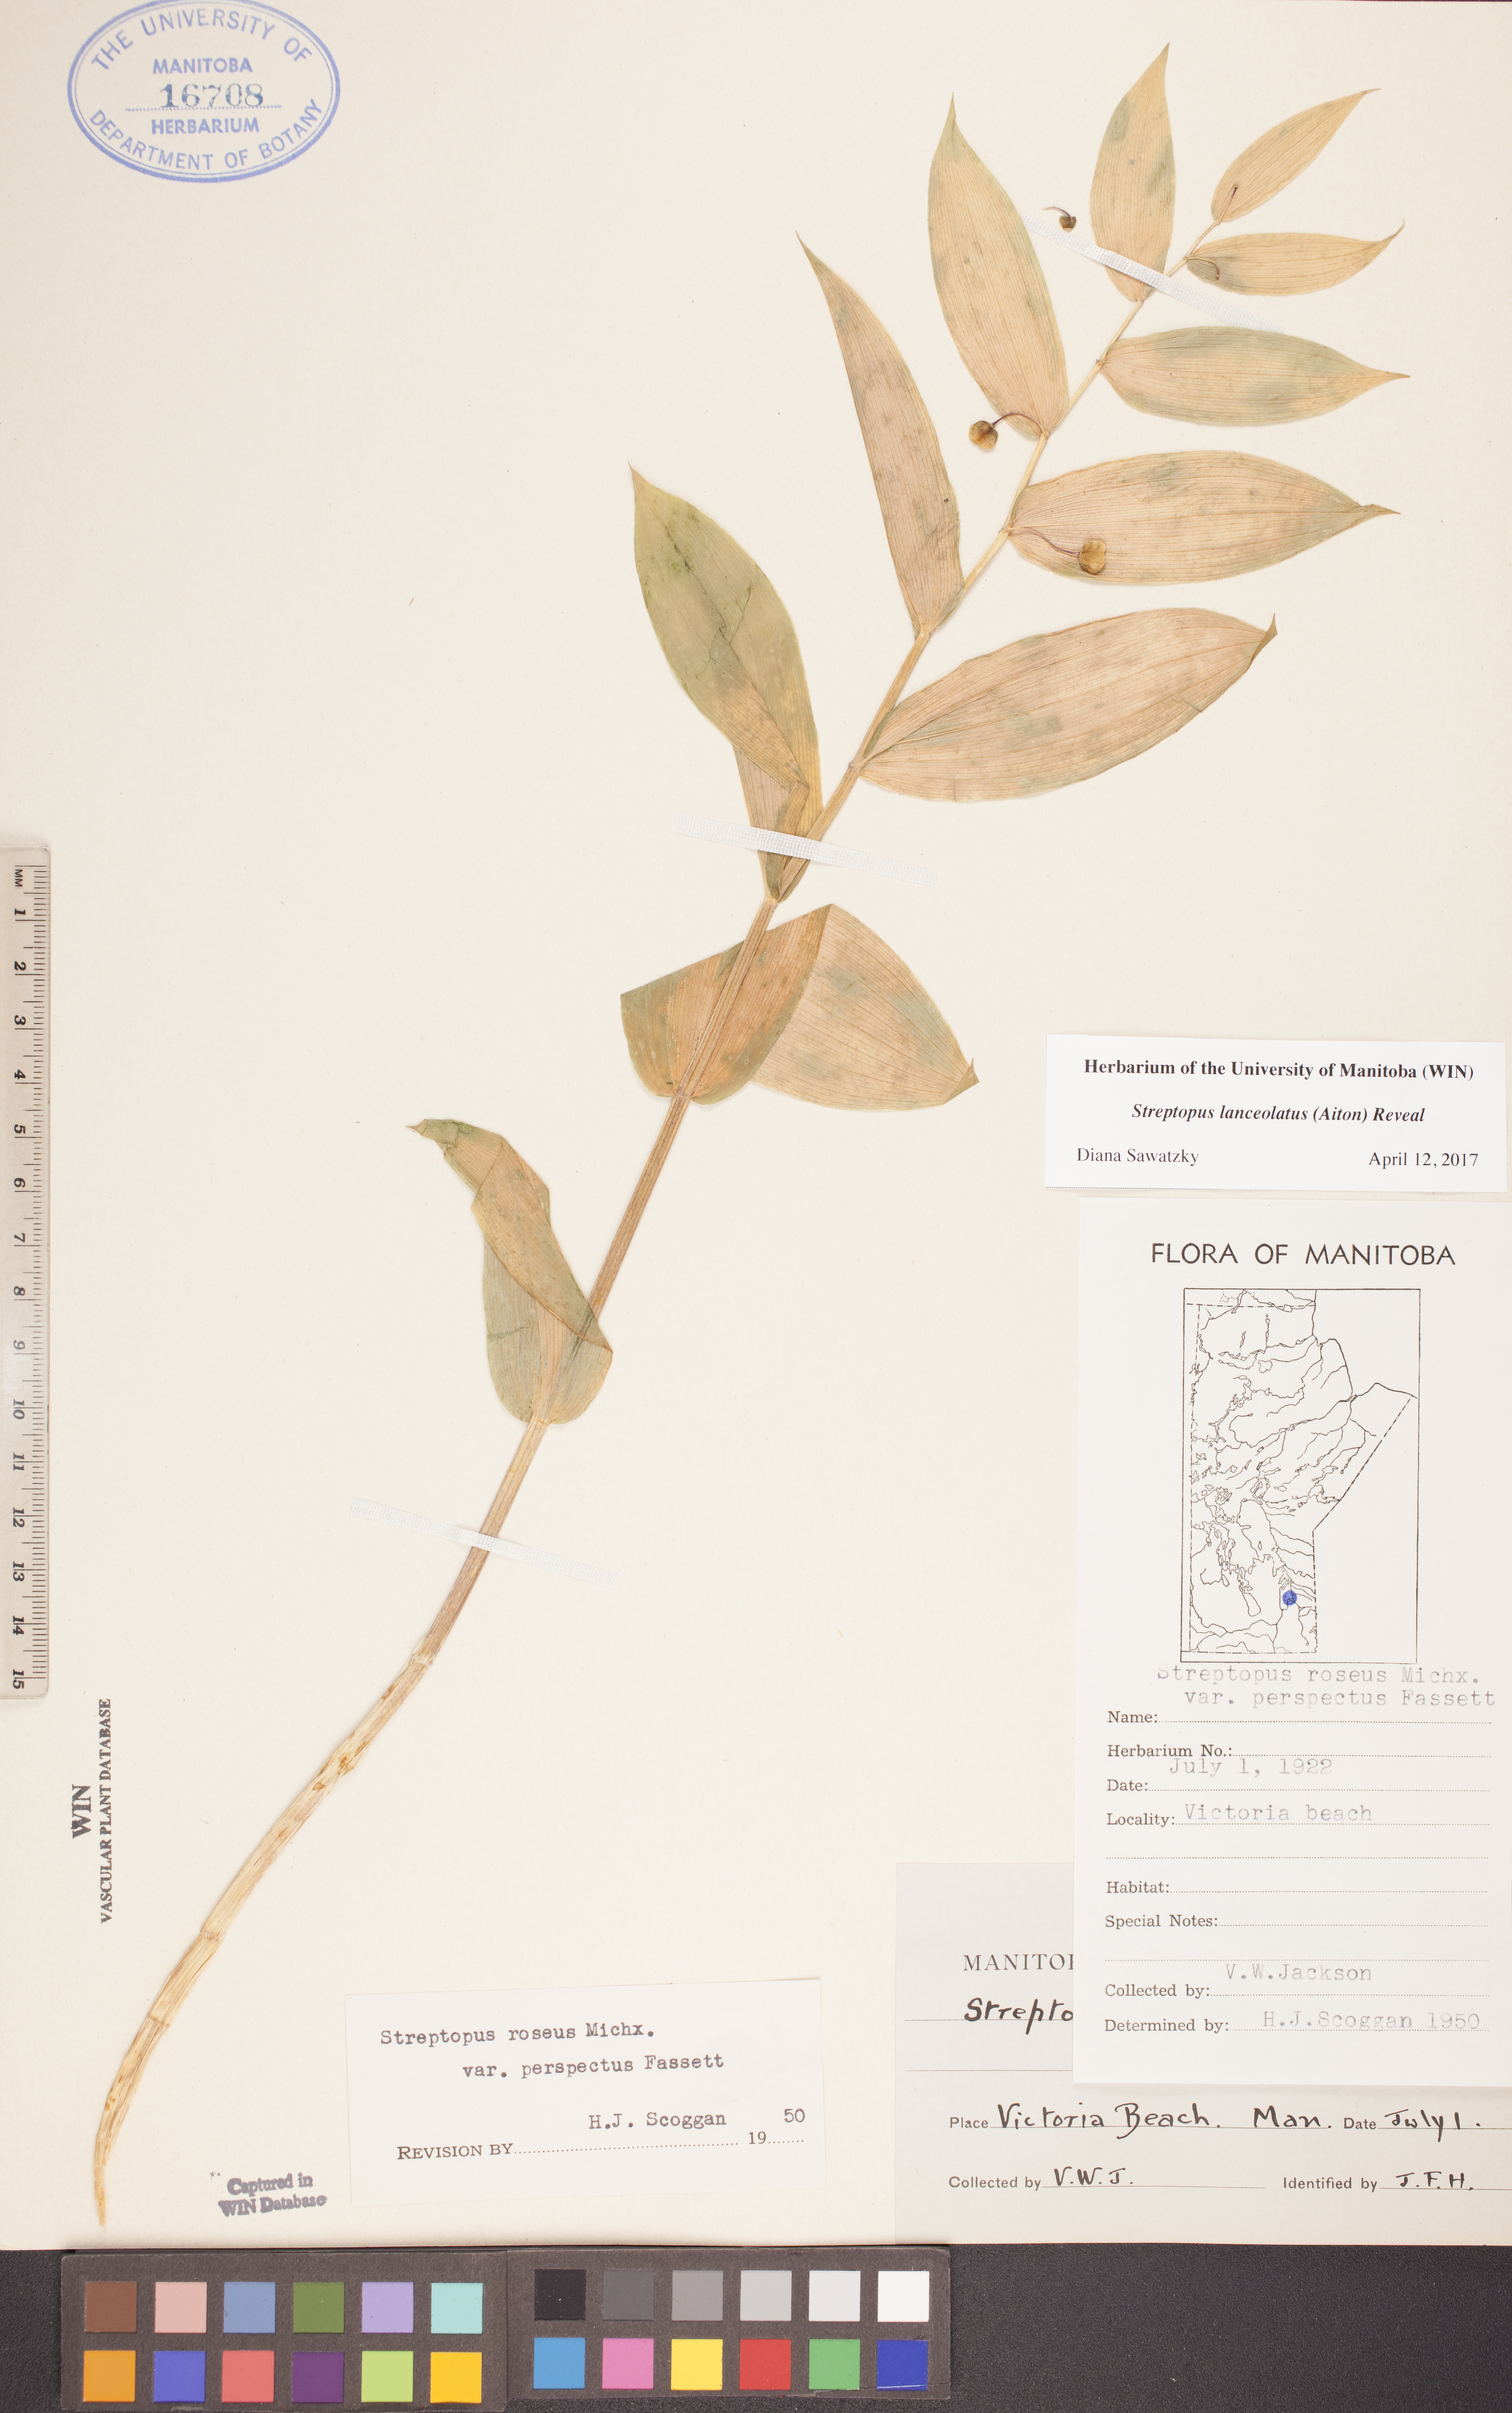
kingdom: Plantae
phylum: Tracheophyta
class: Liliopsida
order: Liliales
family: Liliaceae
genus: Streptopus
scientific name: Streptopus lanceolatus
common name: Rose mandarin
